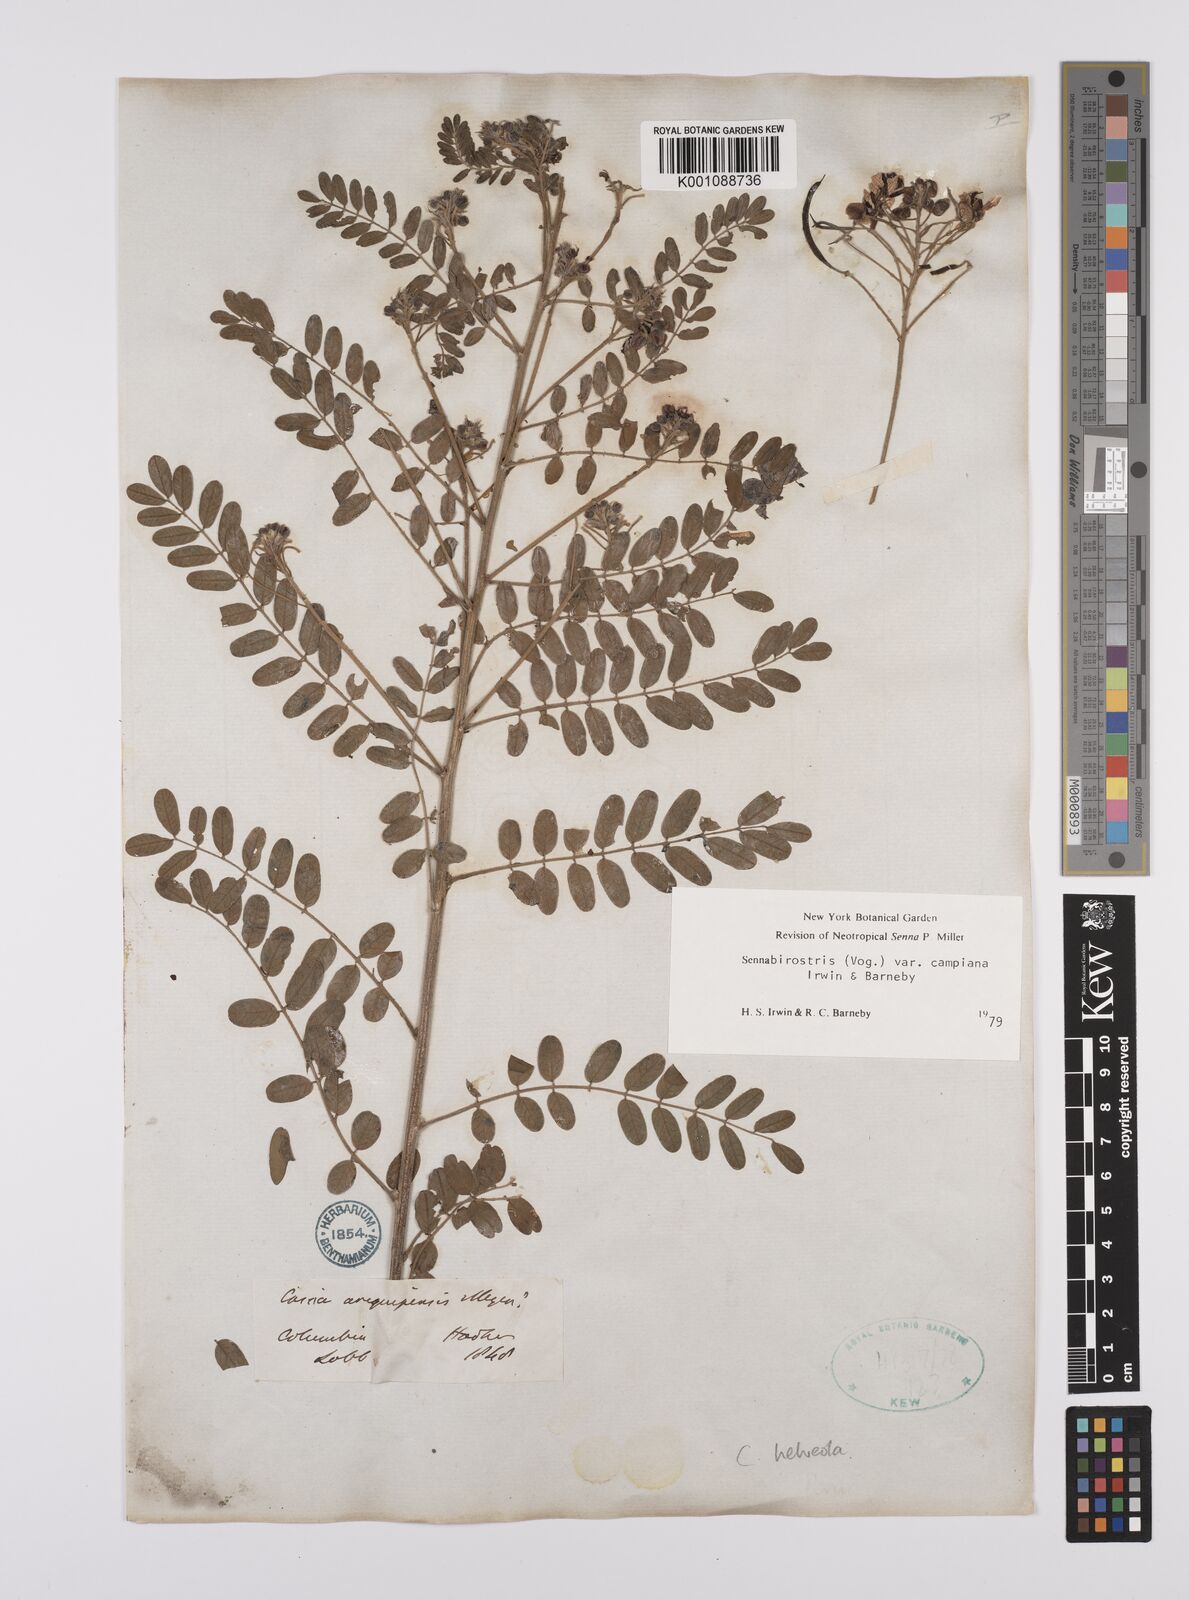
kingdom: Plantae
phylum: Tracheophyta
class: Magnoliopsida
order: Fabales
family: Fabaceae
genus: Senna
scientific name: Senna birostris
